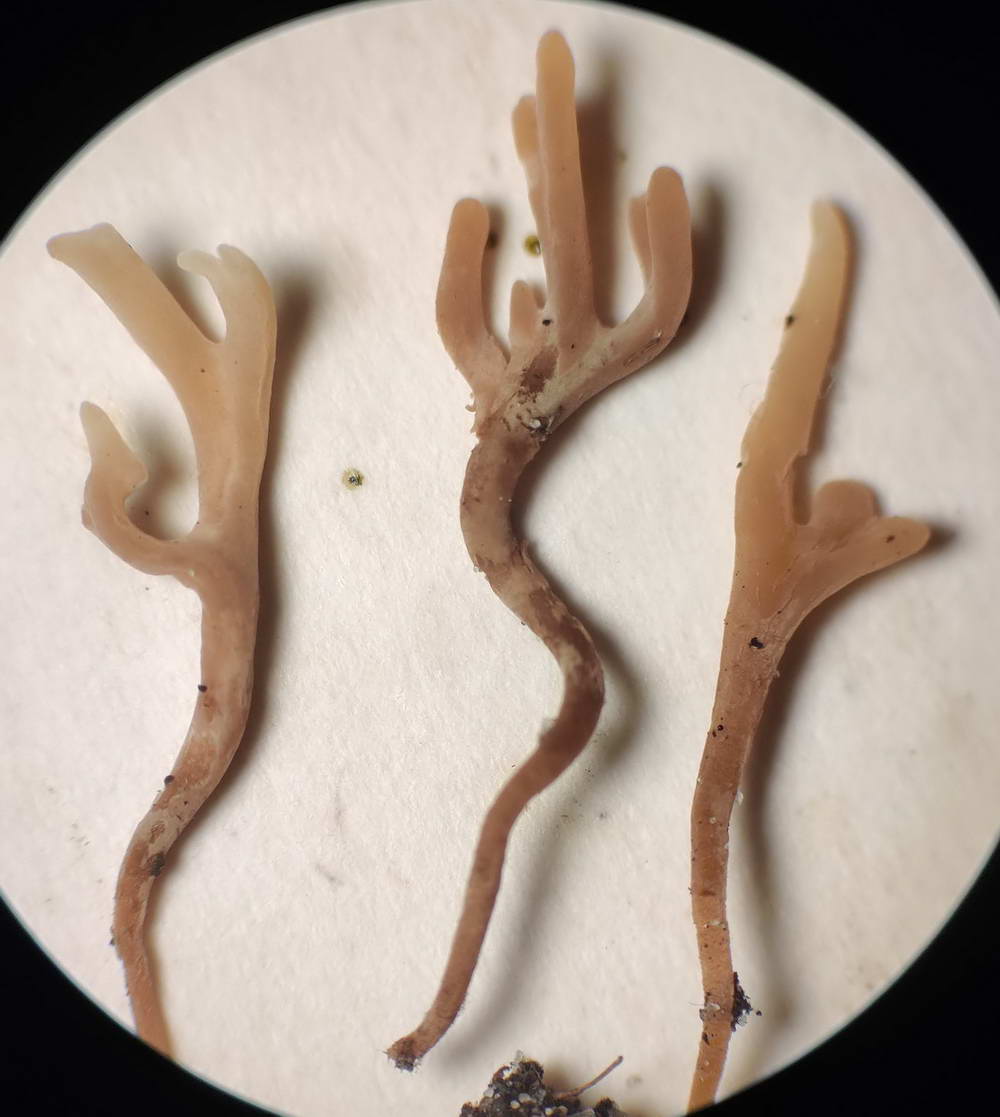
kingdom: Fungi
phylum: Basidiomycota
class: Agaricomycetes
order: Agaricales
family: Clavariaceae
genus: Ramariopsis
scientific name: Ramariopsis
